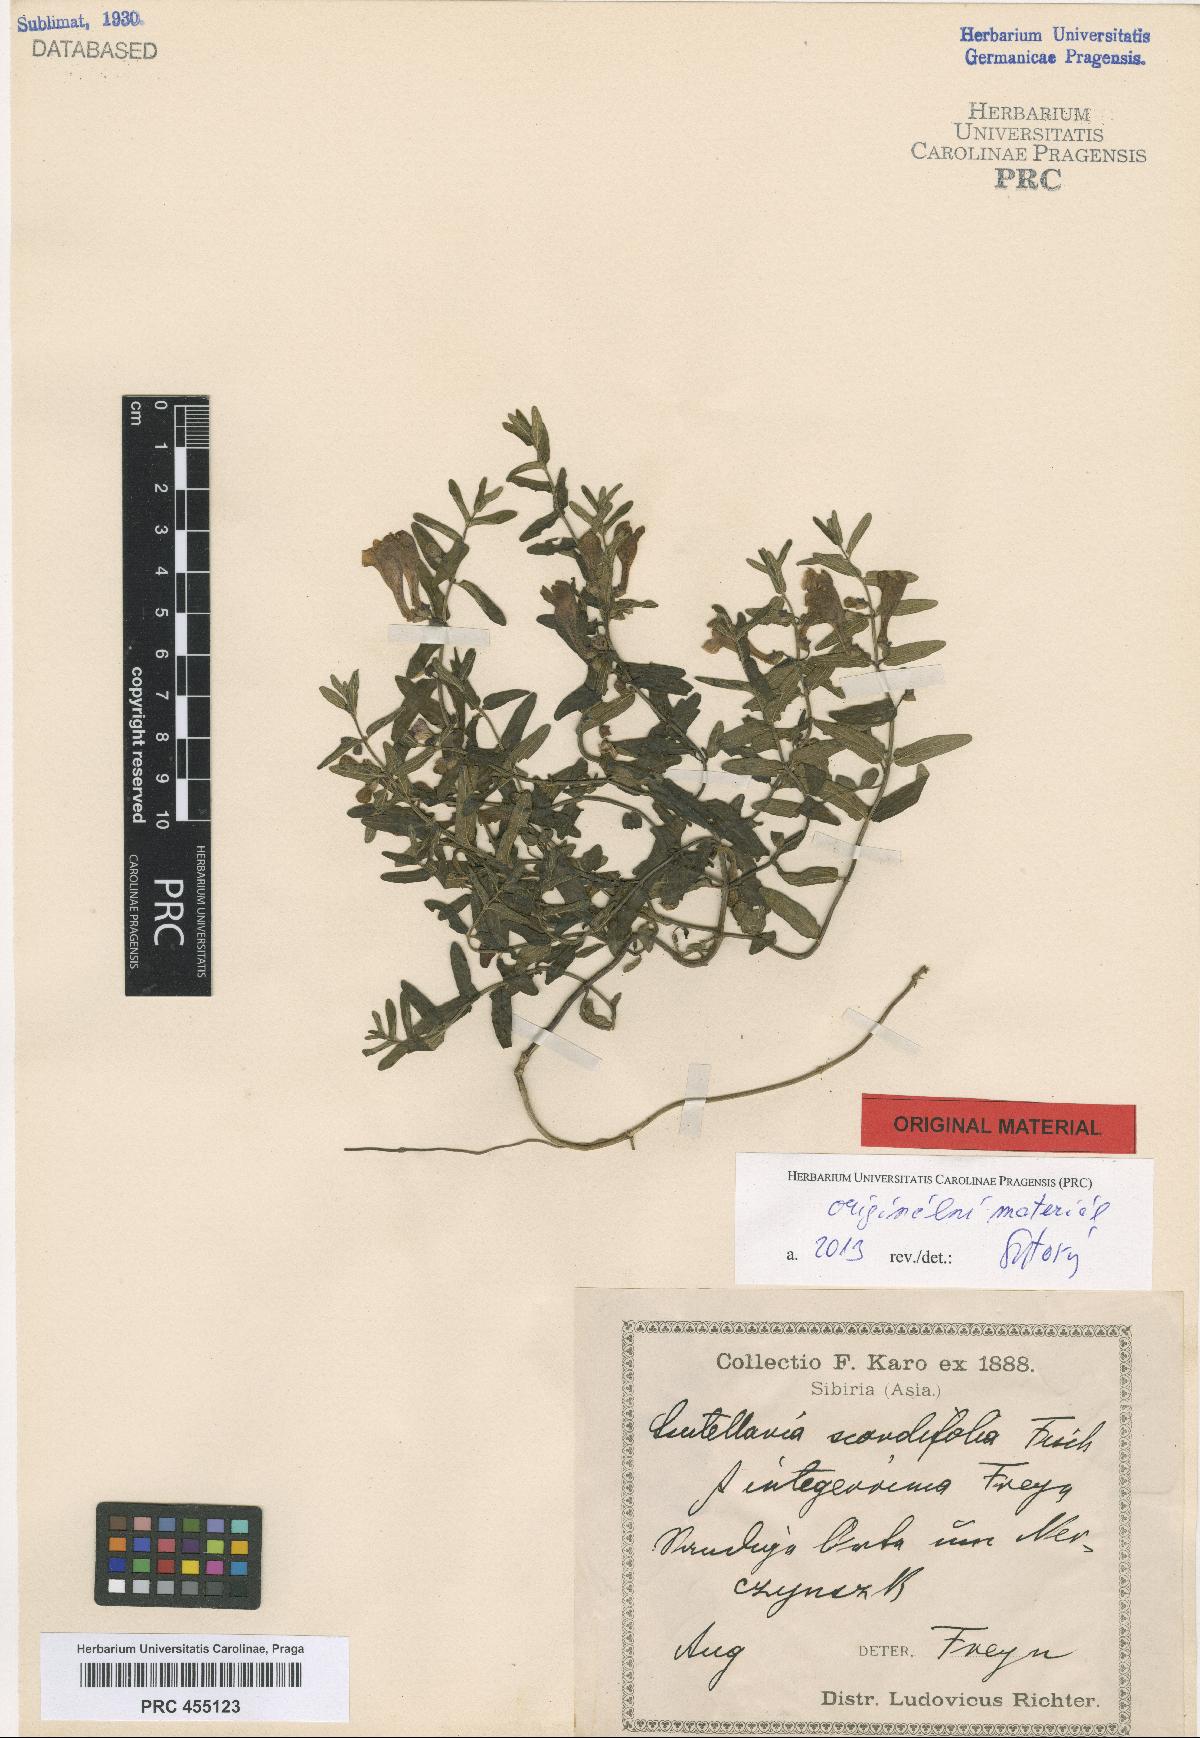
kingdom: Plantae
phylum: Tracheophyta
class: Magnoliopsida
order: Lamiales
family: Lamiaceae
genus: Scutellaria
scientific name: Scutellaria scordiifolia
